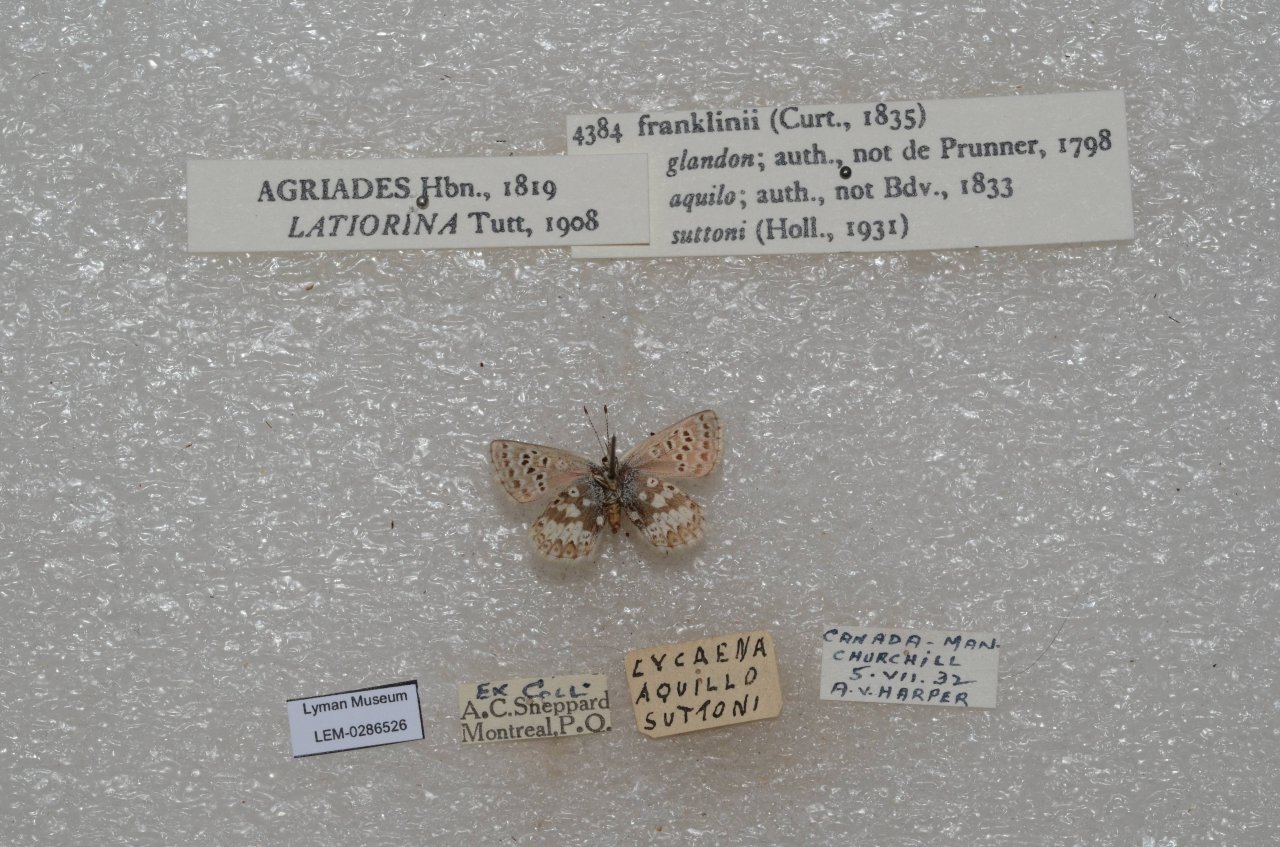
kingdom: Animalia
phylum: Arthropoda
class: Insecta
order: Lepidoptera
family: Lycaenidae
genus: Agriades
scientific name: Agriades glandon
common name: Arctic Blue
